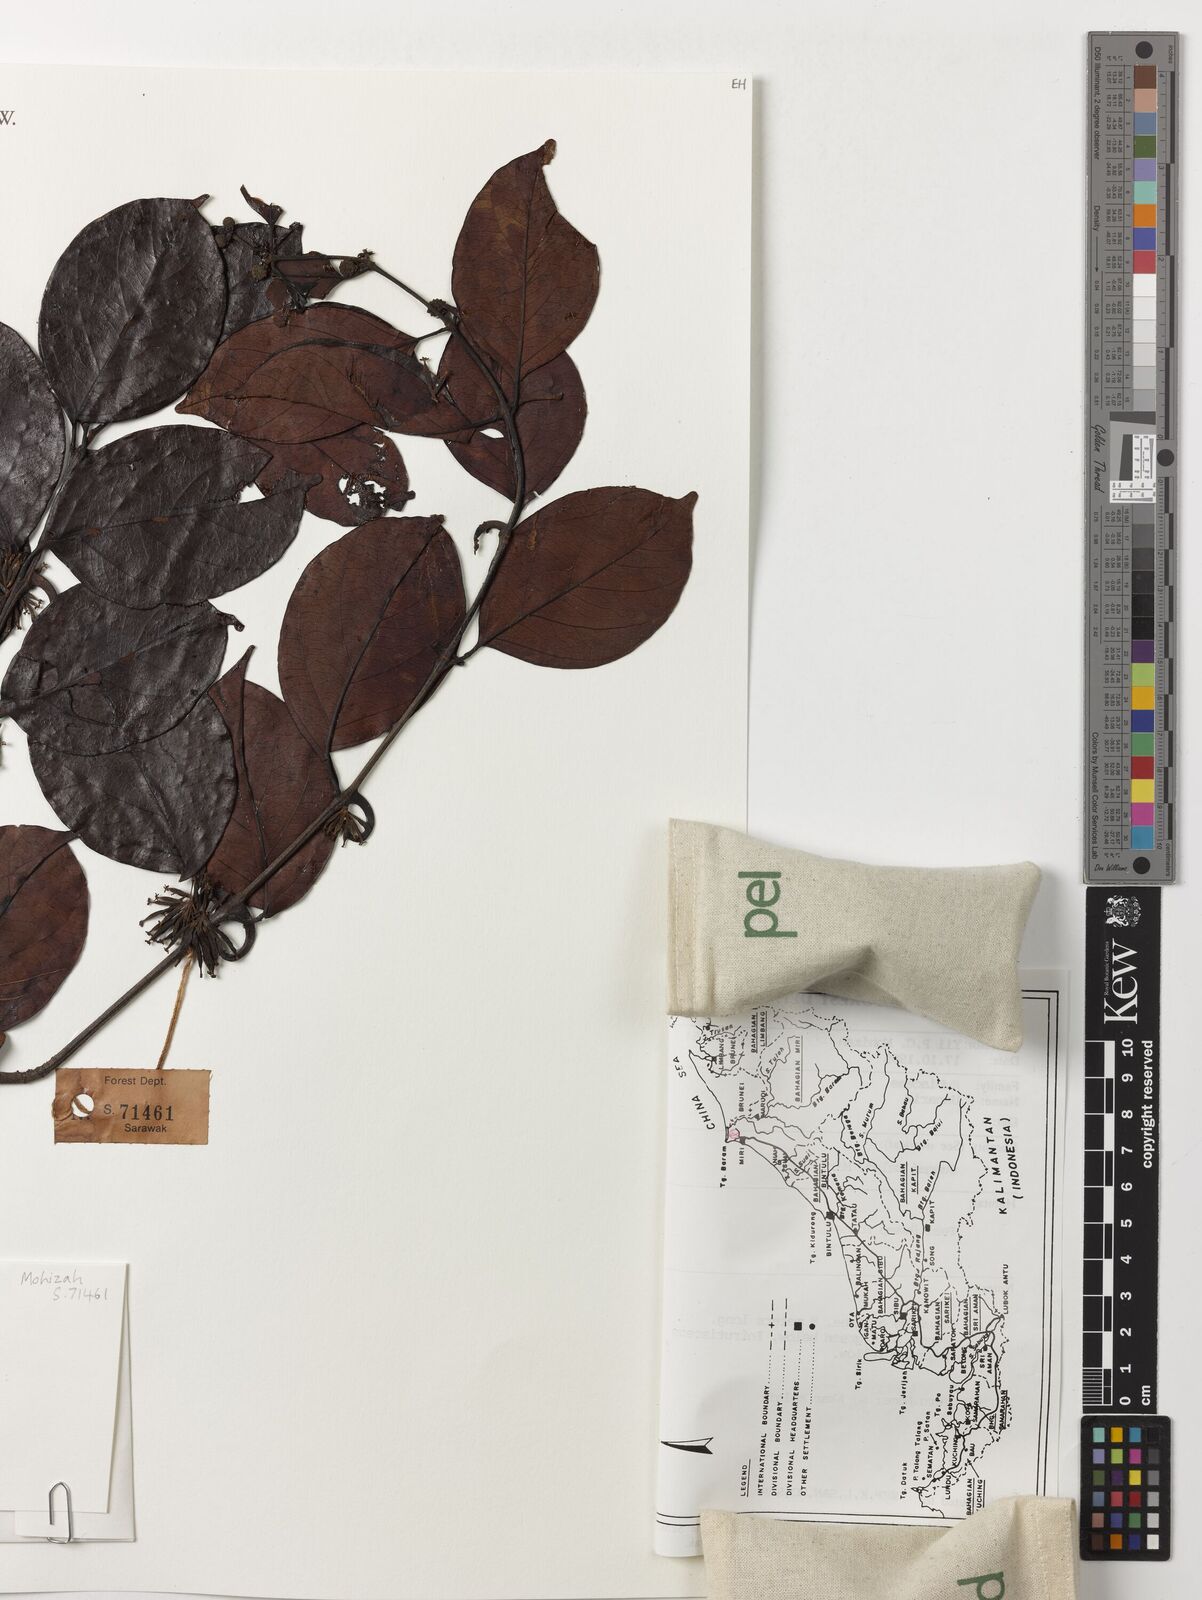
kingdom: Plantae
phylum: Tracheophyta
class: Magnoliopsida
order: Gentianales
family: Rubiaceae
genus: Uncaria
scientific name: Uncaria
